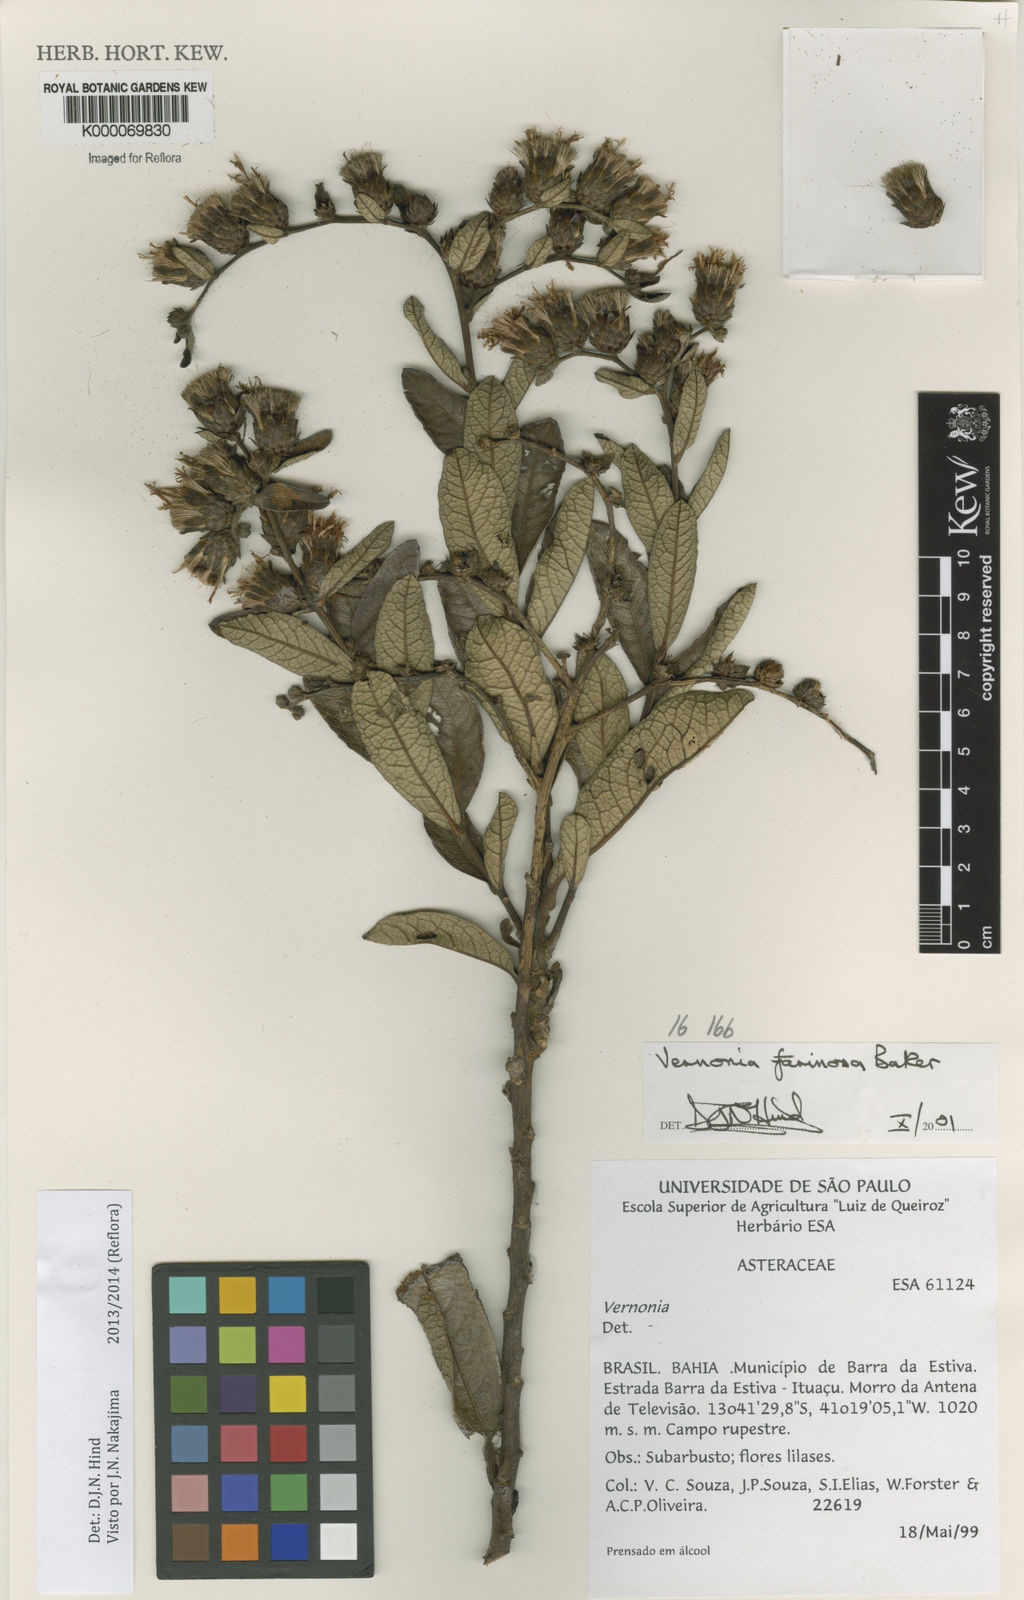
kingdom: Plantae
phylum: Tracheophyta
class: Magnoliopsida
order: Asterales
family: Asteraceae
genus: Lessingianthus
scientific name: Lessingianthus farinosus
